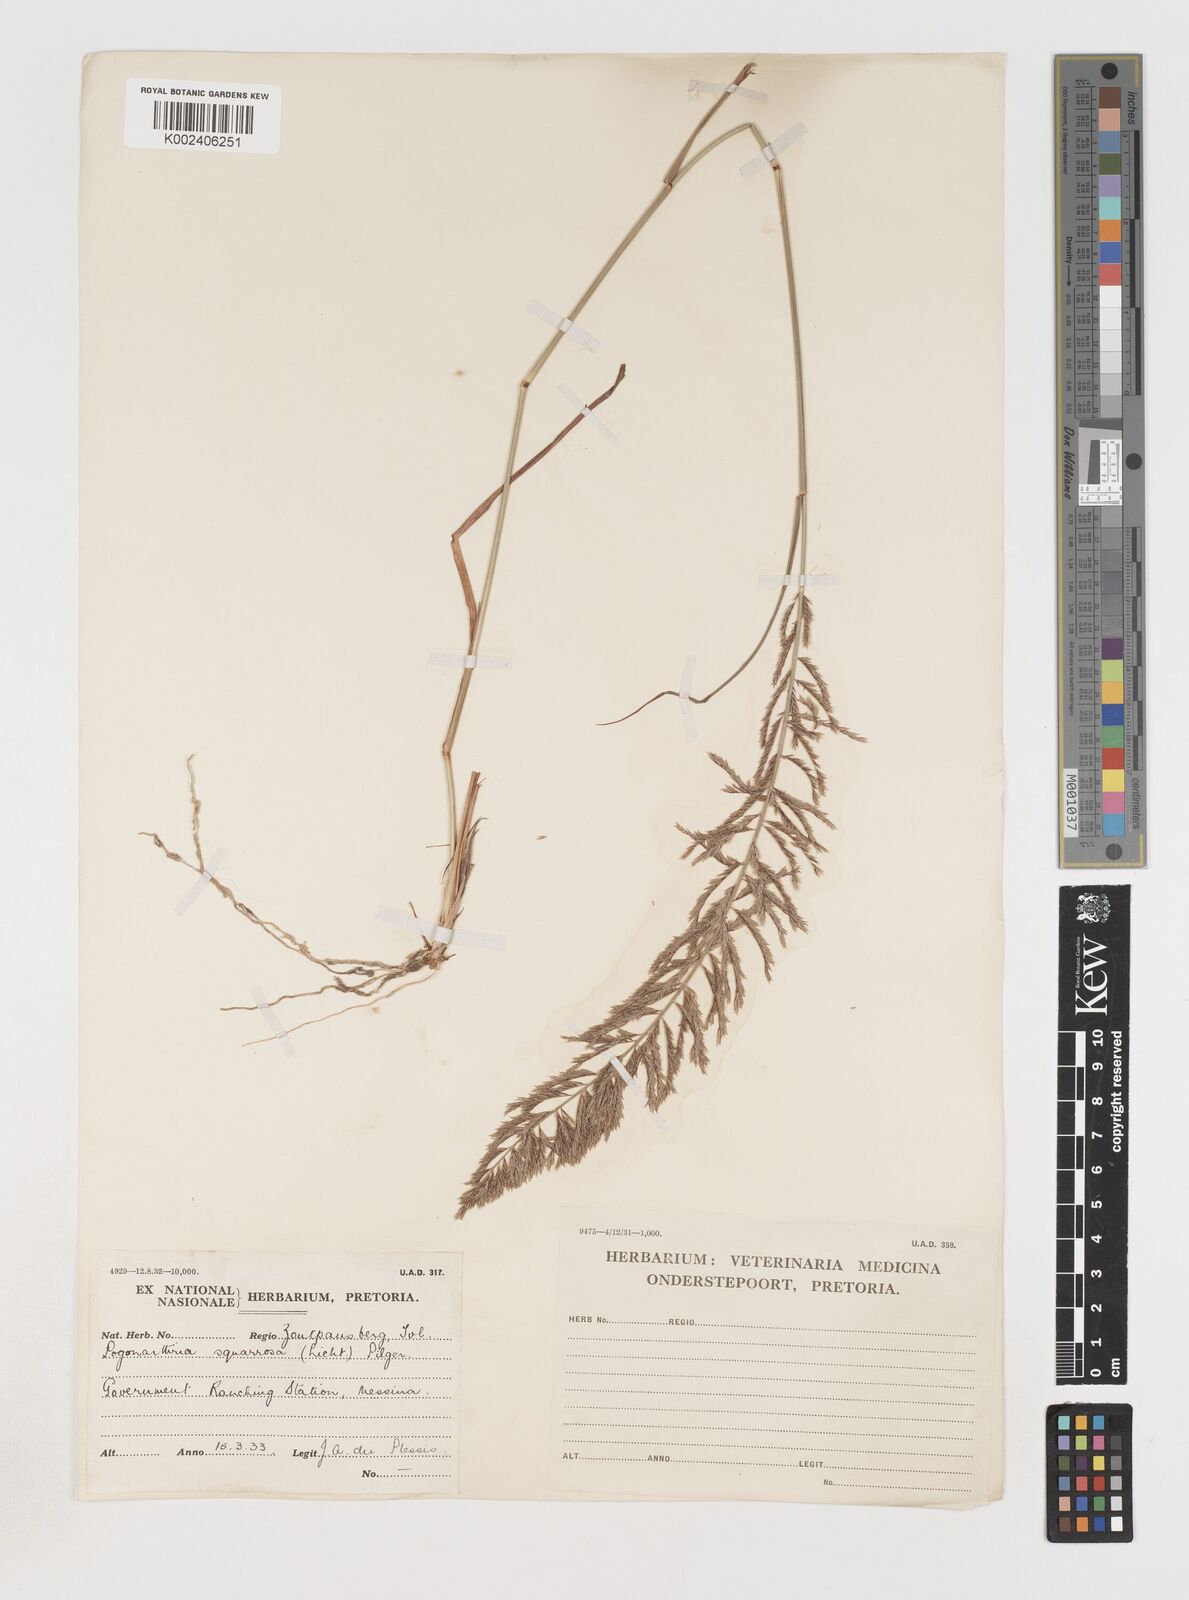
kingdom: Plantae
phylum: Tracheophyta
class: Liliopsida
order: Poales
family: Poaceae
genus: Pogonarthria
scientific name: Pogonarthria squarrosa
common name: Grass
